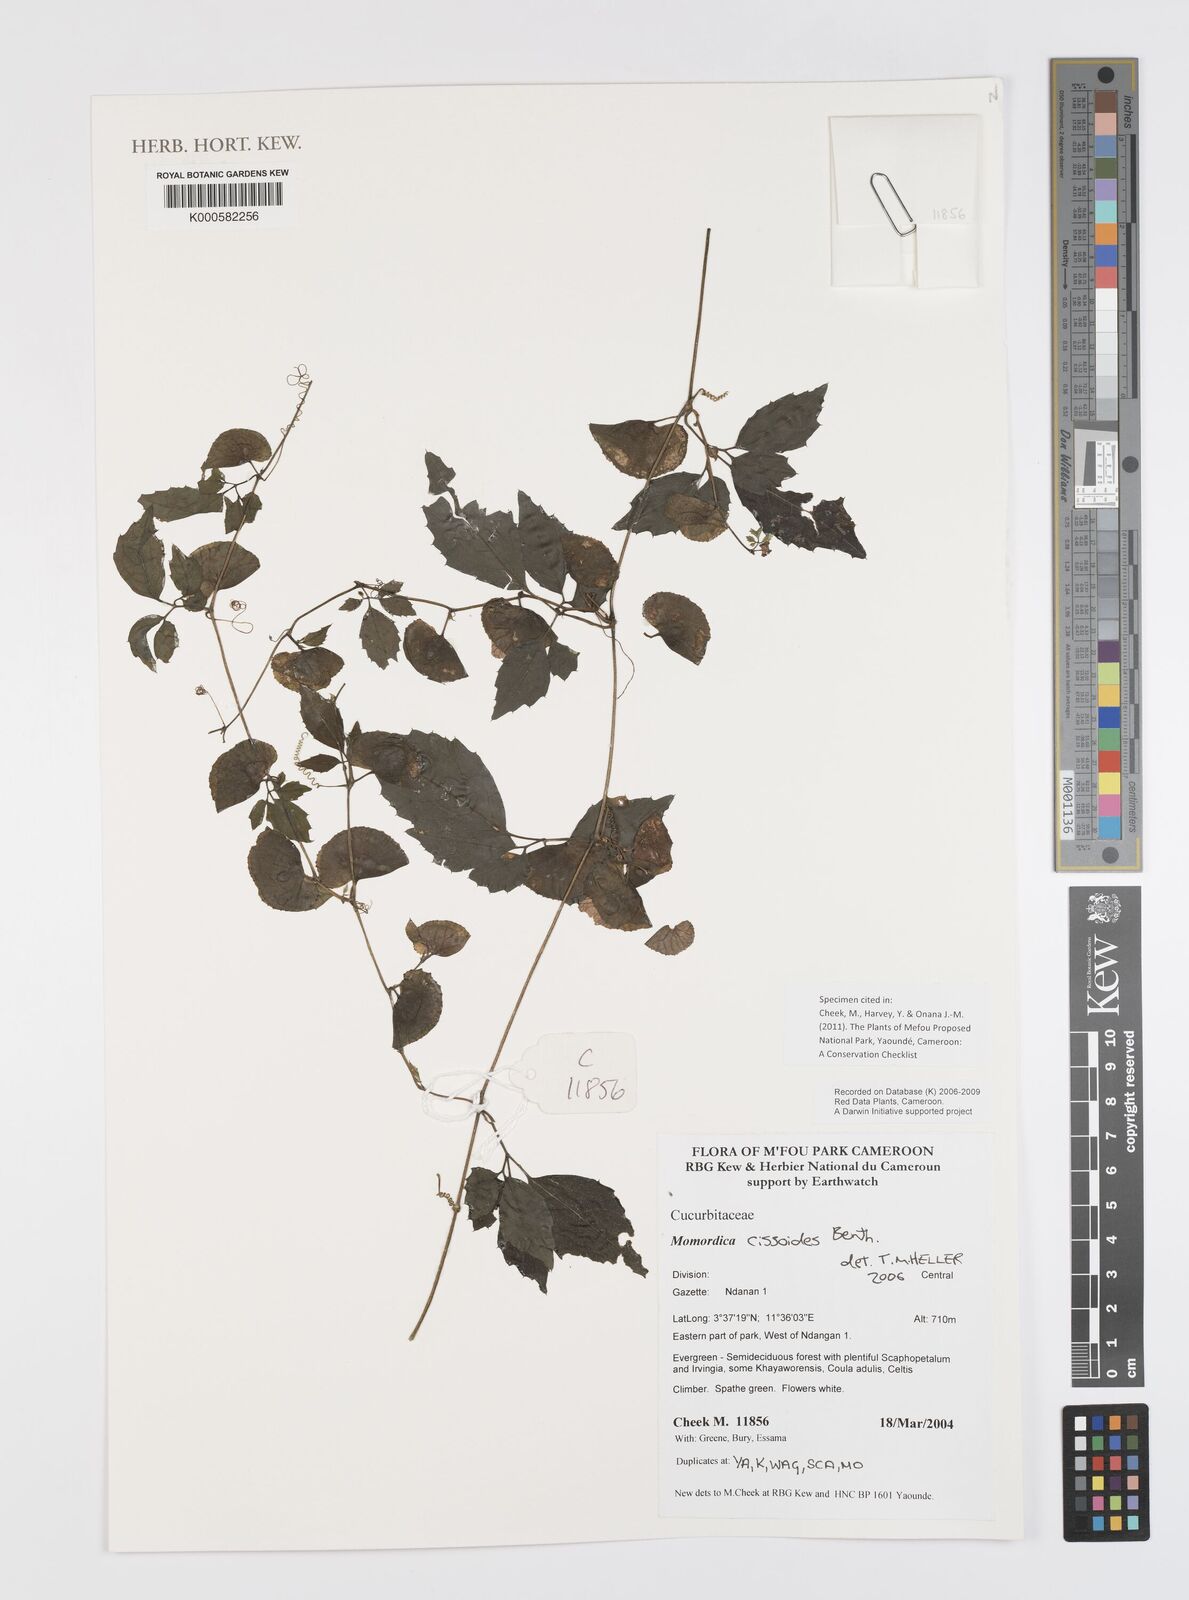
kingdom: Plantae
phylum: Tracheophyta
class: Magnoliopsida
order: Cucurbitales
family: Cucurbitaceae
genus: Momordica
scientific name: Momordica cissoides
